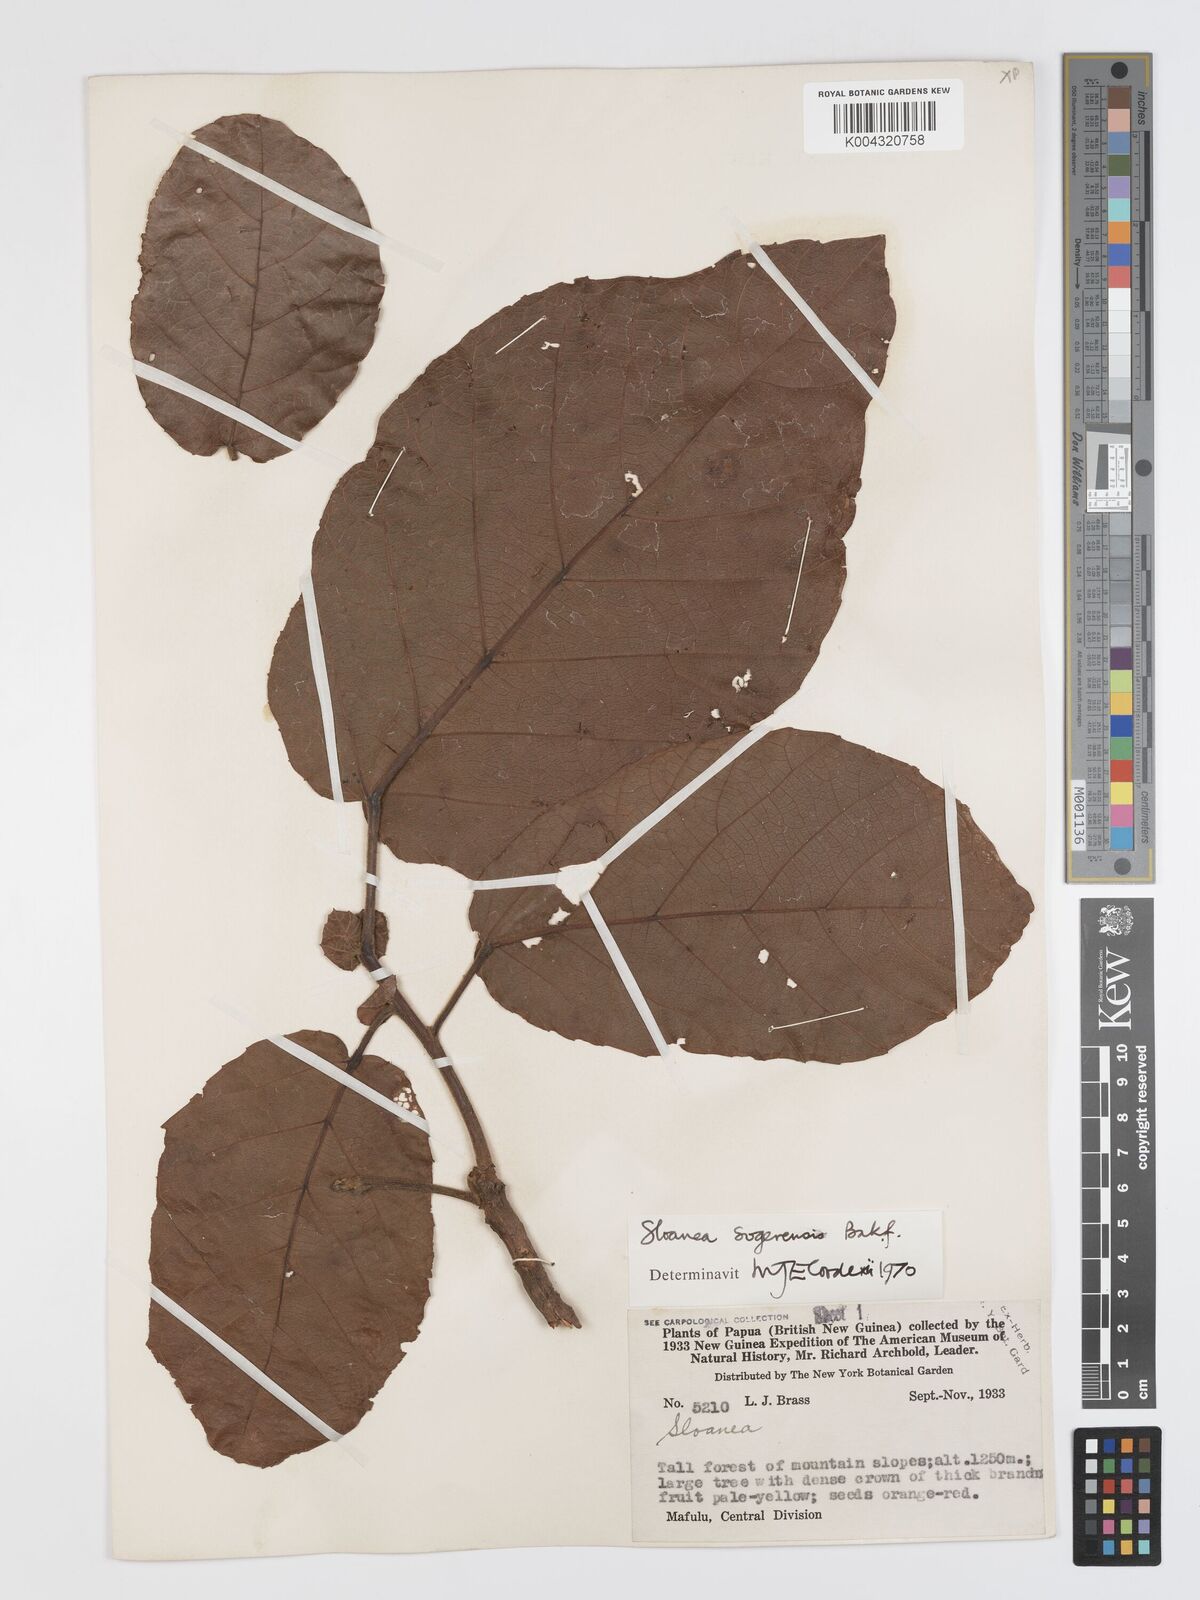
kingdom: Plantae
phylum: Tracheophyta
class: Magnoliopsida
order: Oxalidales
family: Elaeocarpaceae
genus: Sloanea
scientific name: Sloanea sogerensis
